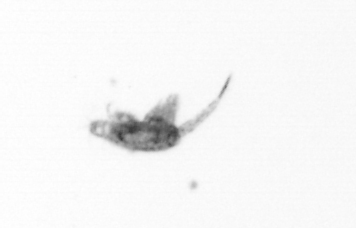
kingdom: Animalia
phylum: Arthropoda
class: Copepoda
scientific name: Copepoda
